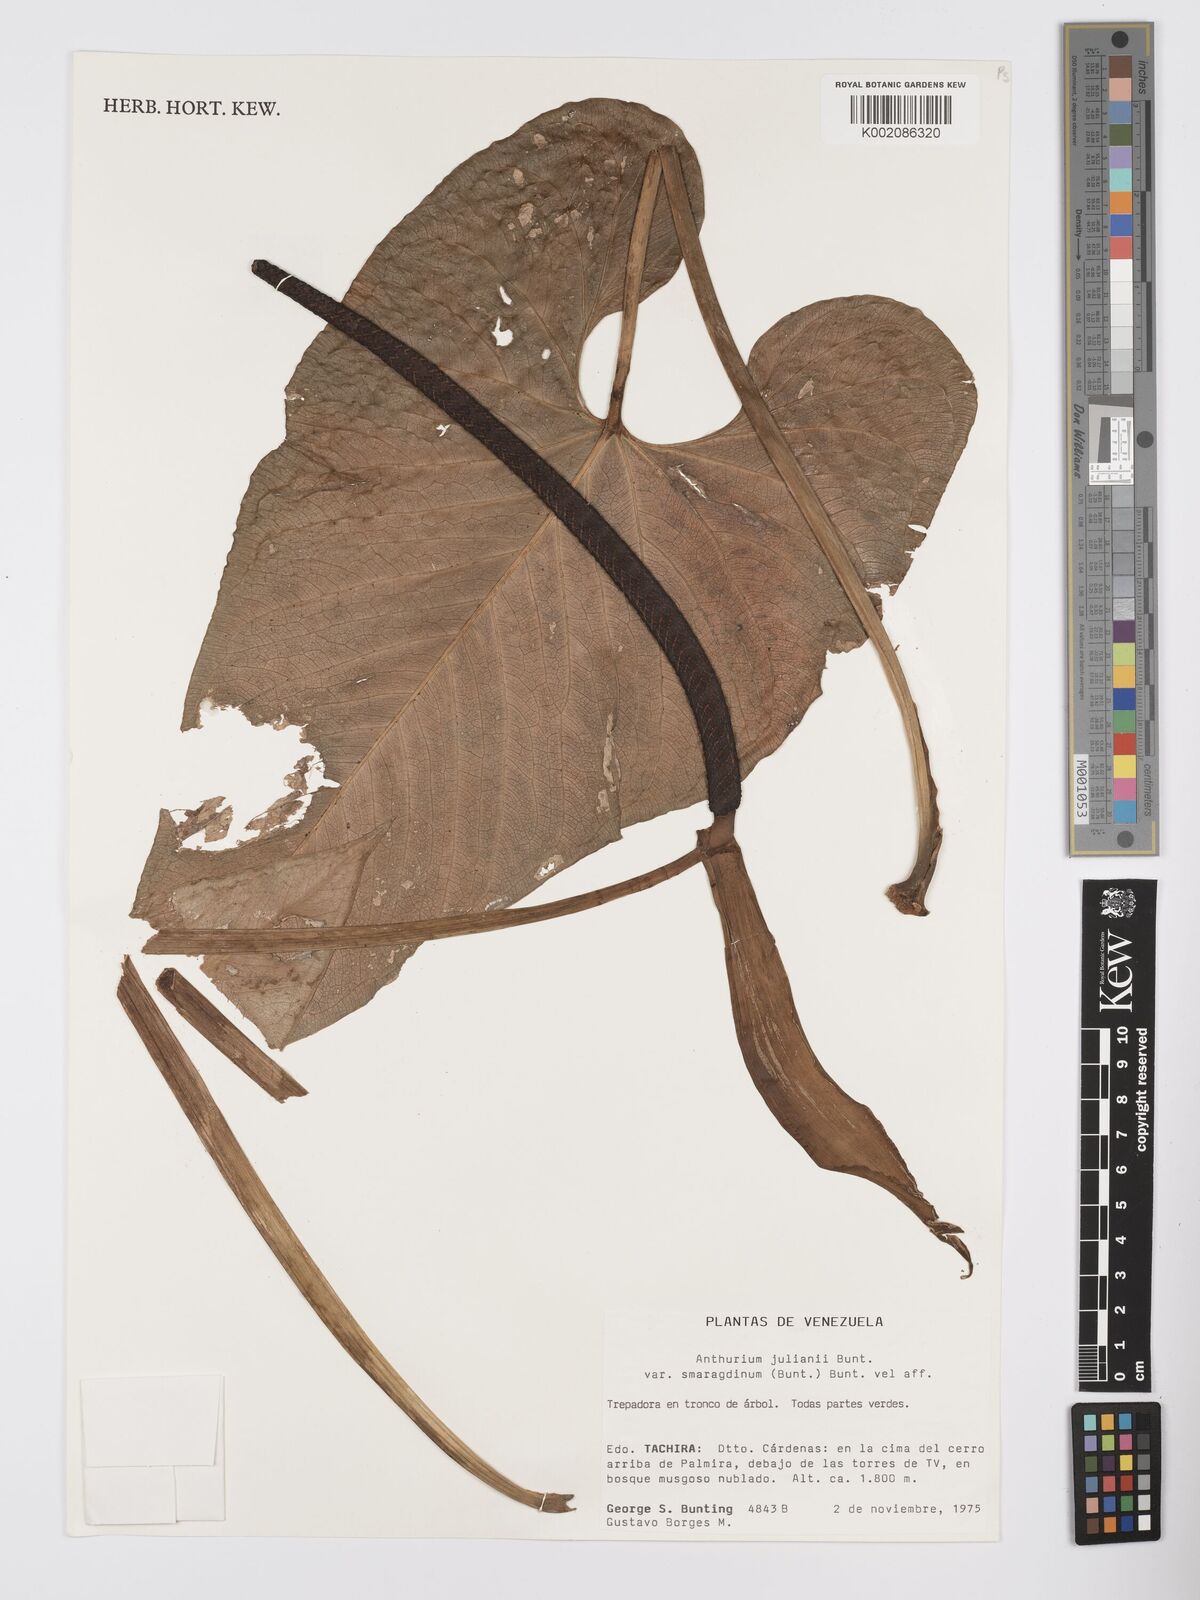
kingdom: Plantae
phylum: Tracheophyta
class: Liliopsida
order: Alismatales
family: Araceae
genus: Anthurium
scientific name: Anthurium julianii
